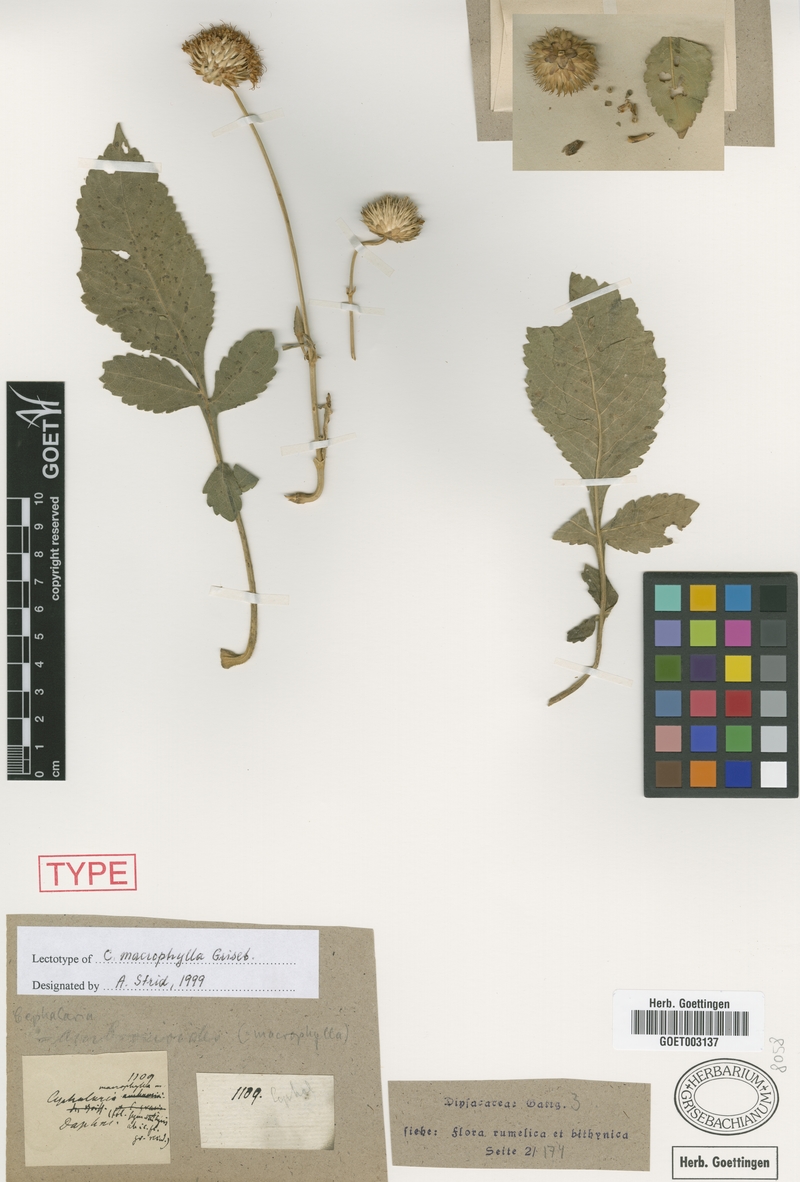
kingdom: Plantae
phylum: Tracheophyta
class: Magnoliopsida
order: Dipsacales
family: Caprifoliaceae
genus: Cephalaria
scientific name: Cephalaria ambrosioides
